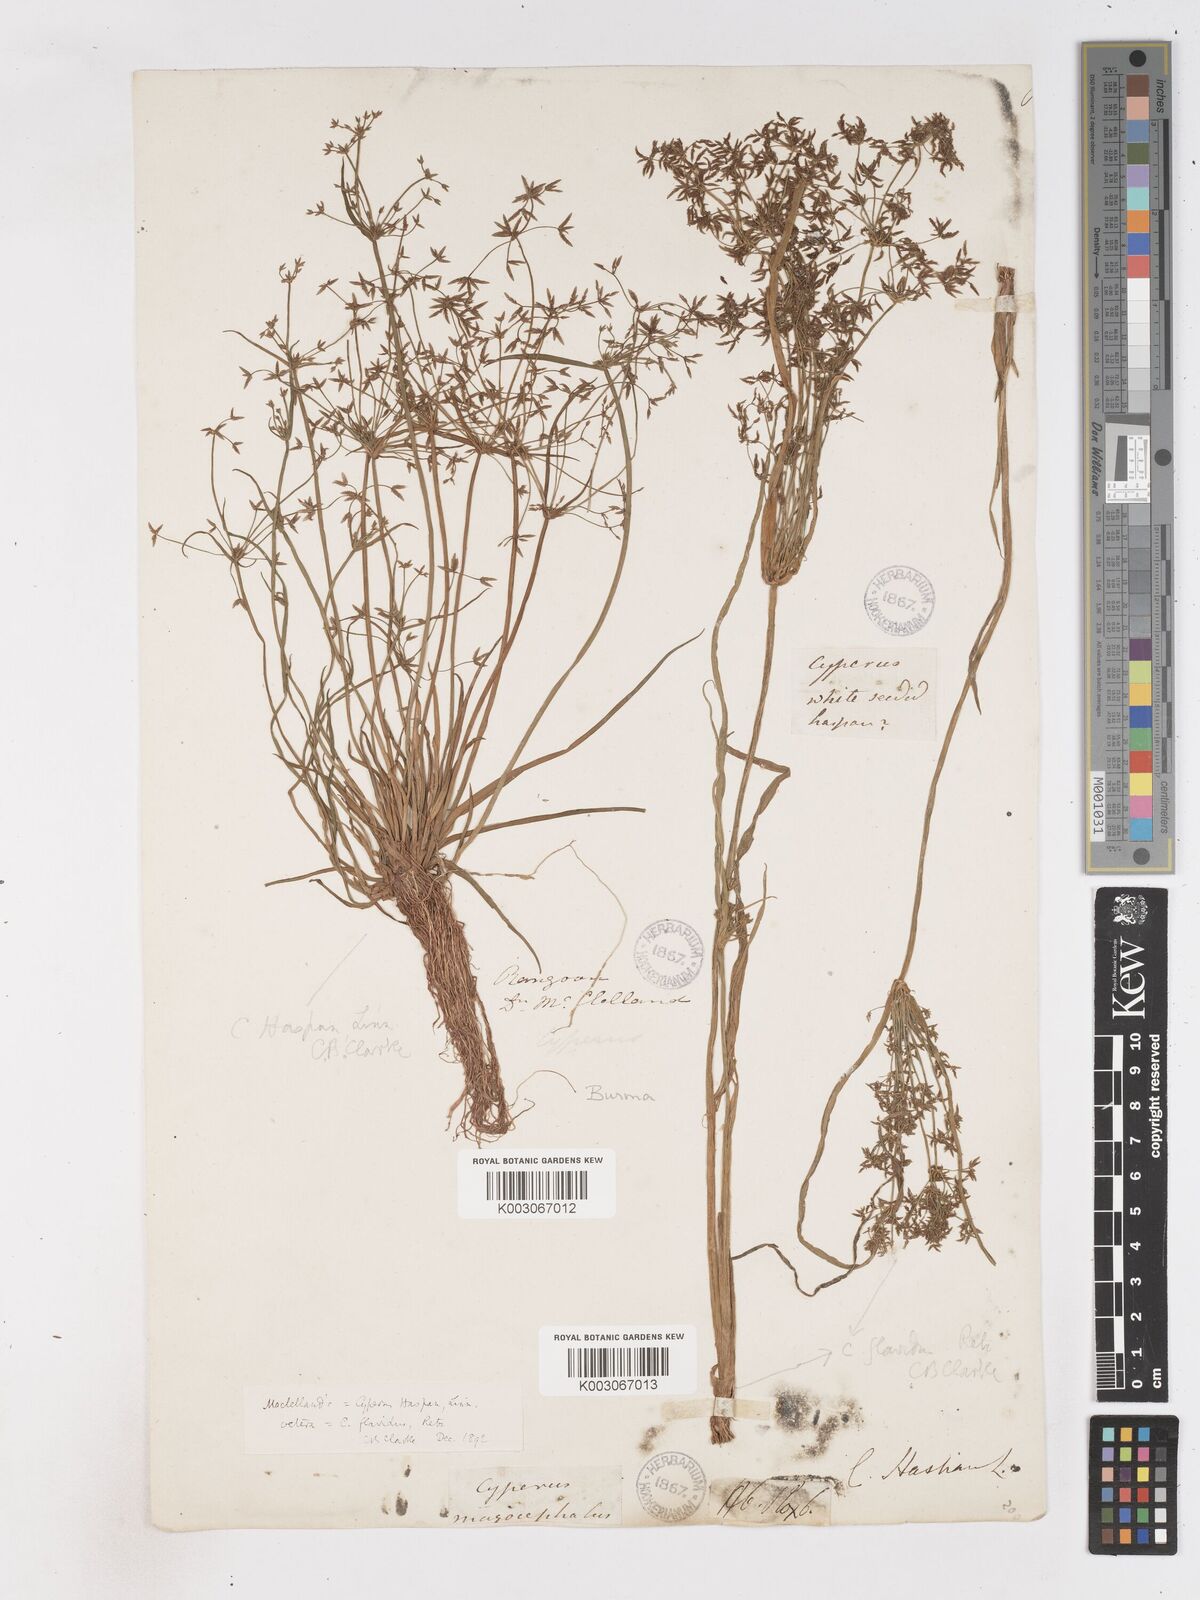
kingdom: Plantae
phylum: Tracheophyta
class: Liliopsida
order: Poales
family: Cyperaceae
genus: Cyperus
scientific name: Cyperus haspan
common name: Haspan flatsedge
